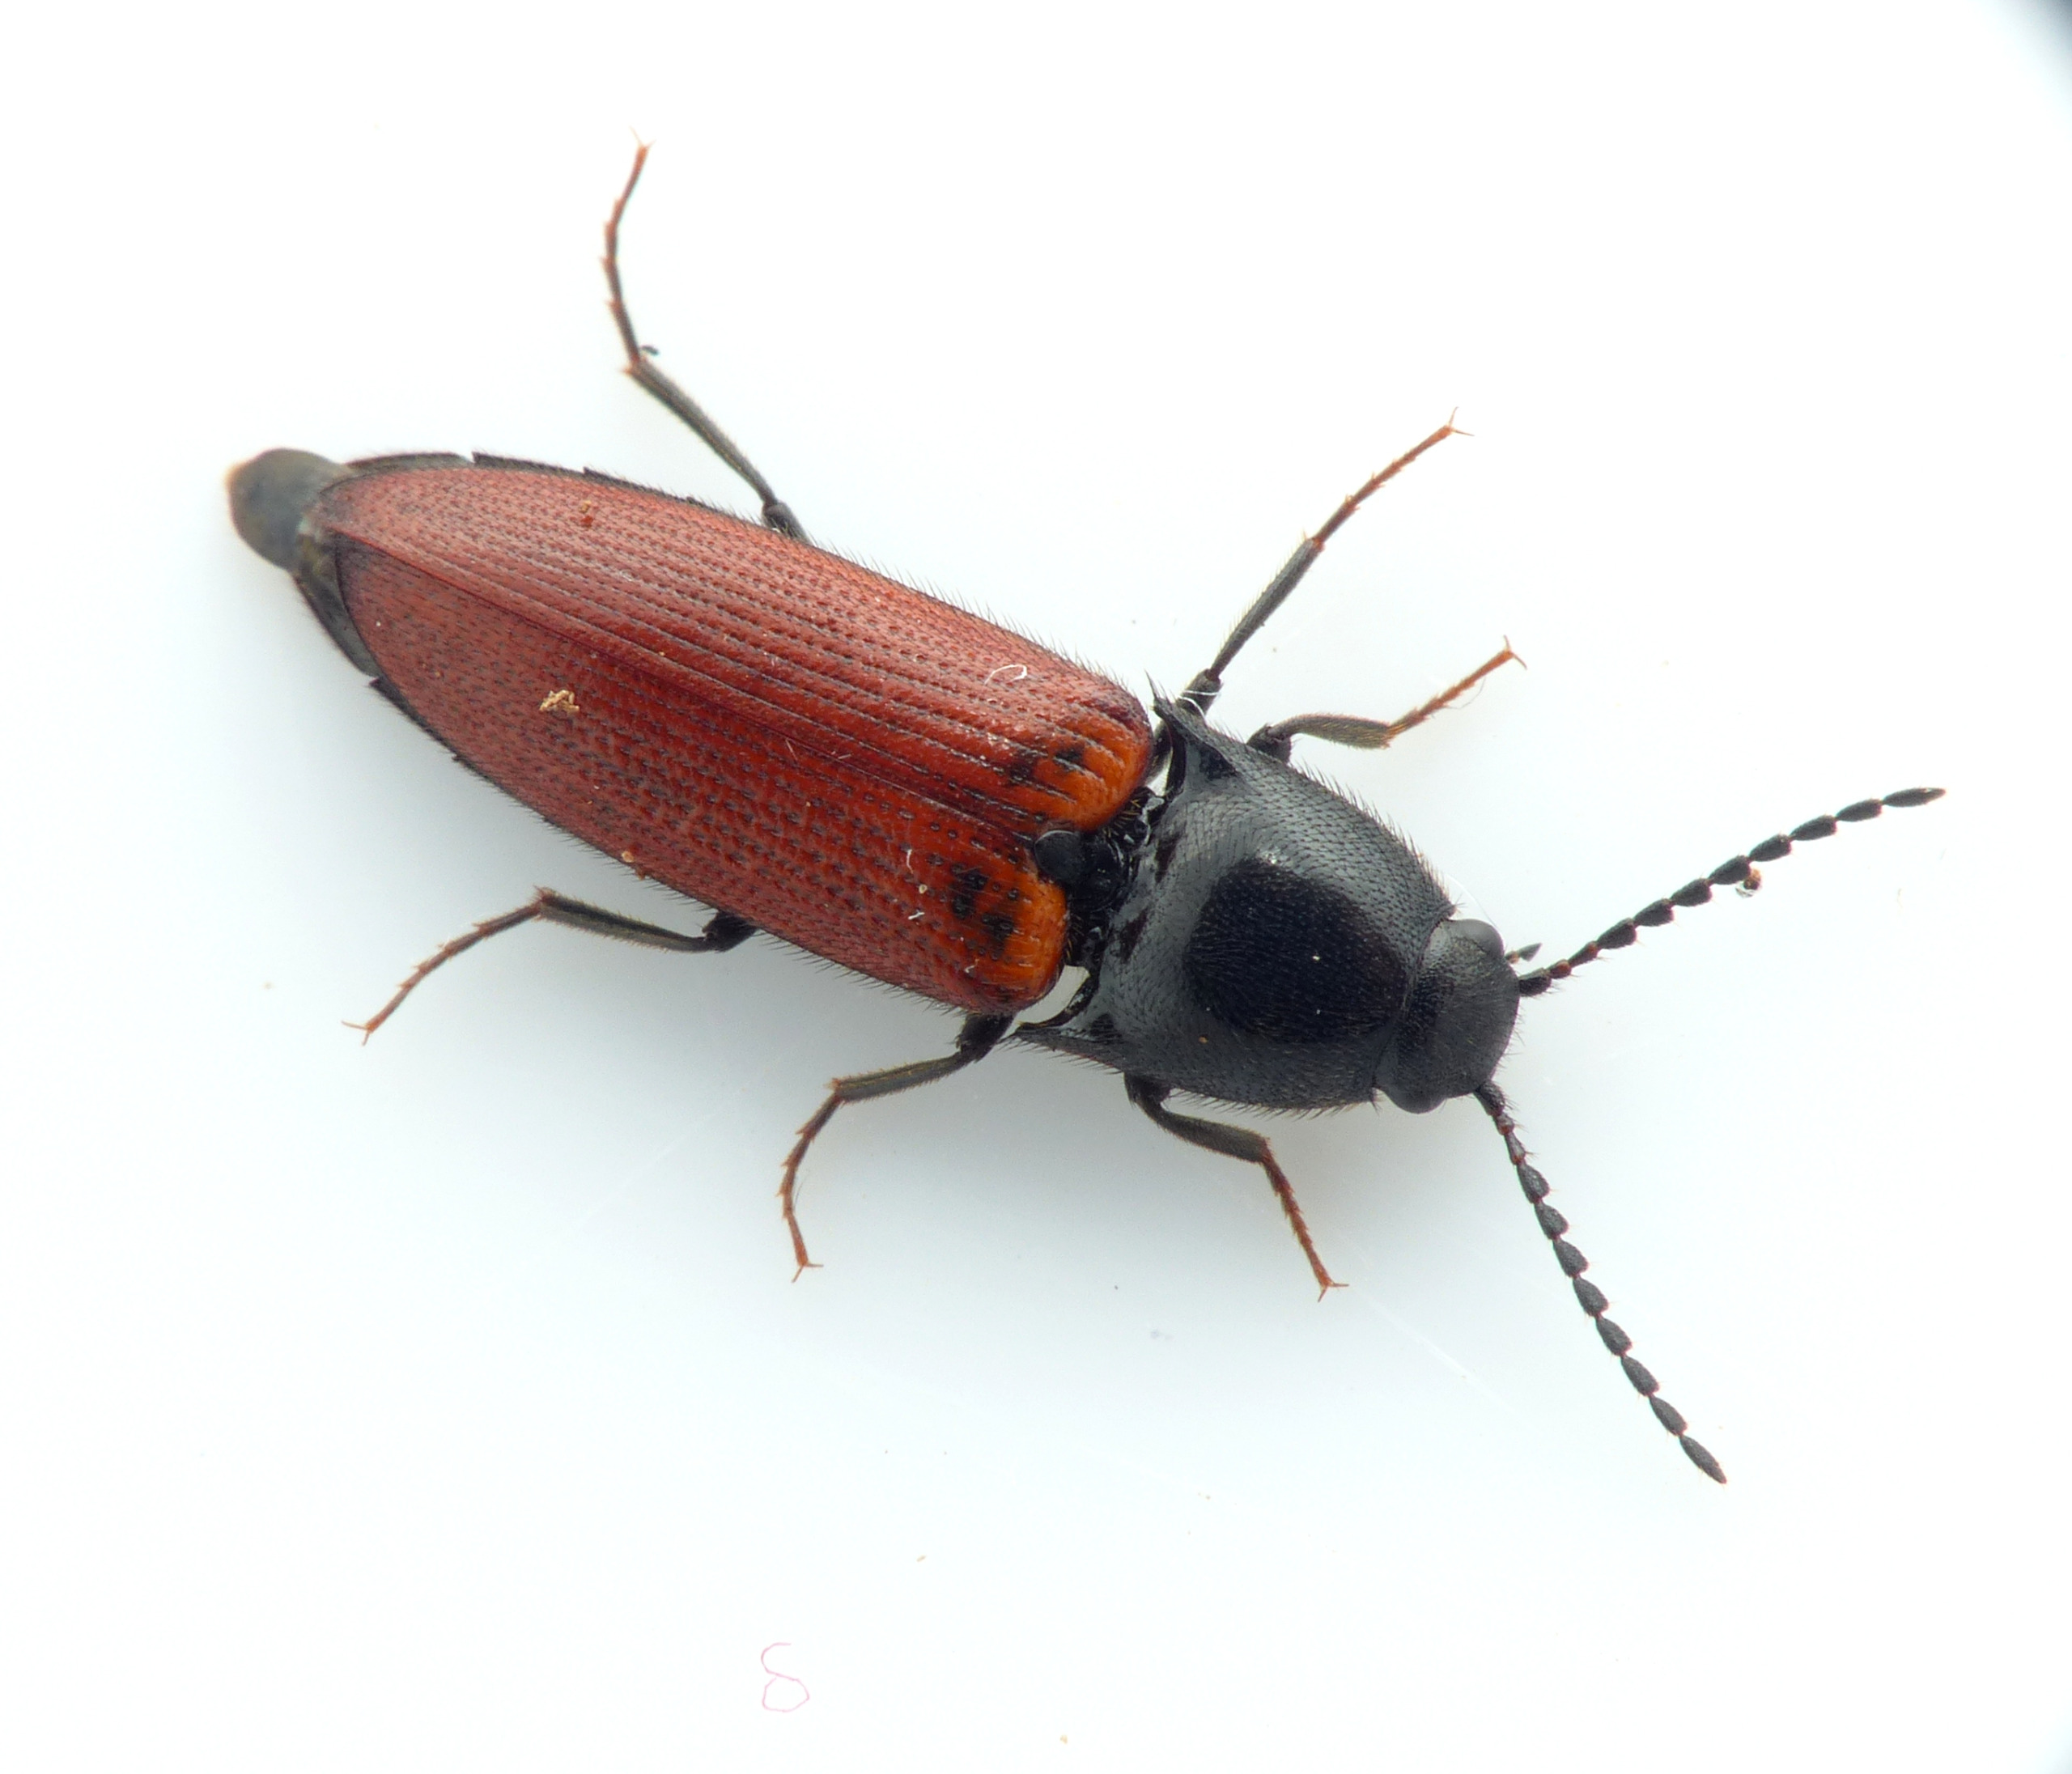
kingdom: Animalia
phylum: Arthropoda
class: Insecta
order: Coleoptera
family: Elateridae
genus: Ampedus
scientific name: Ampedus pomorum
